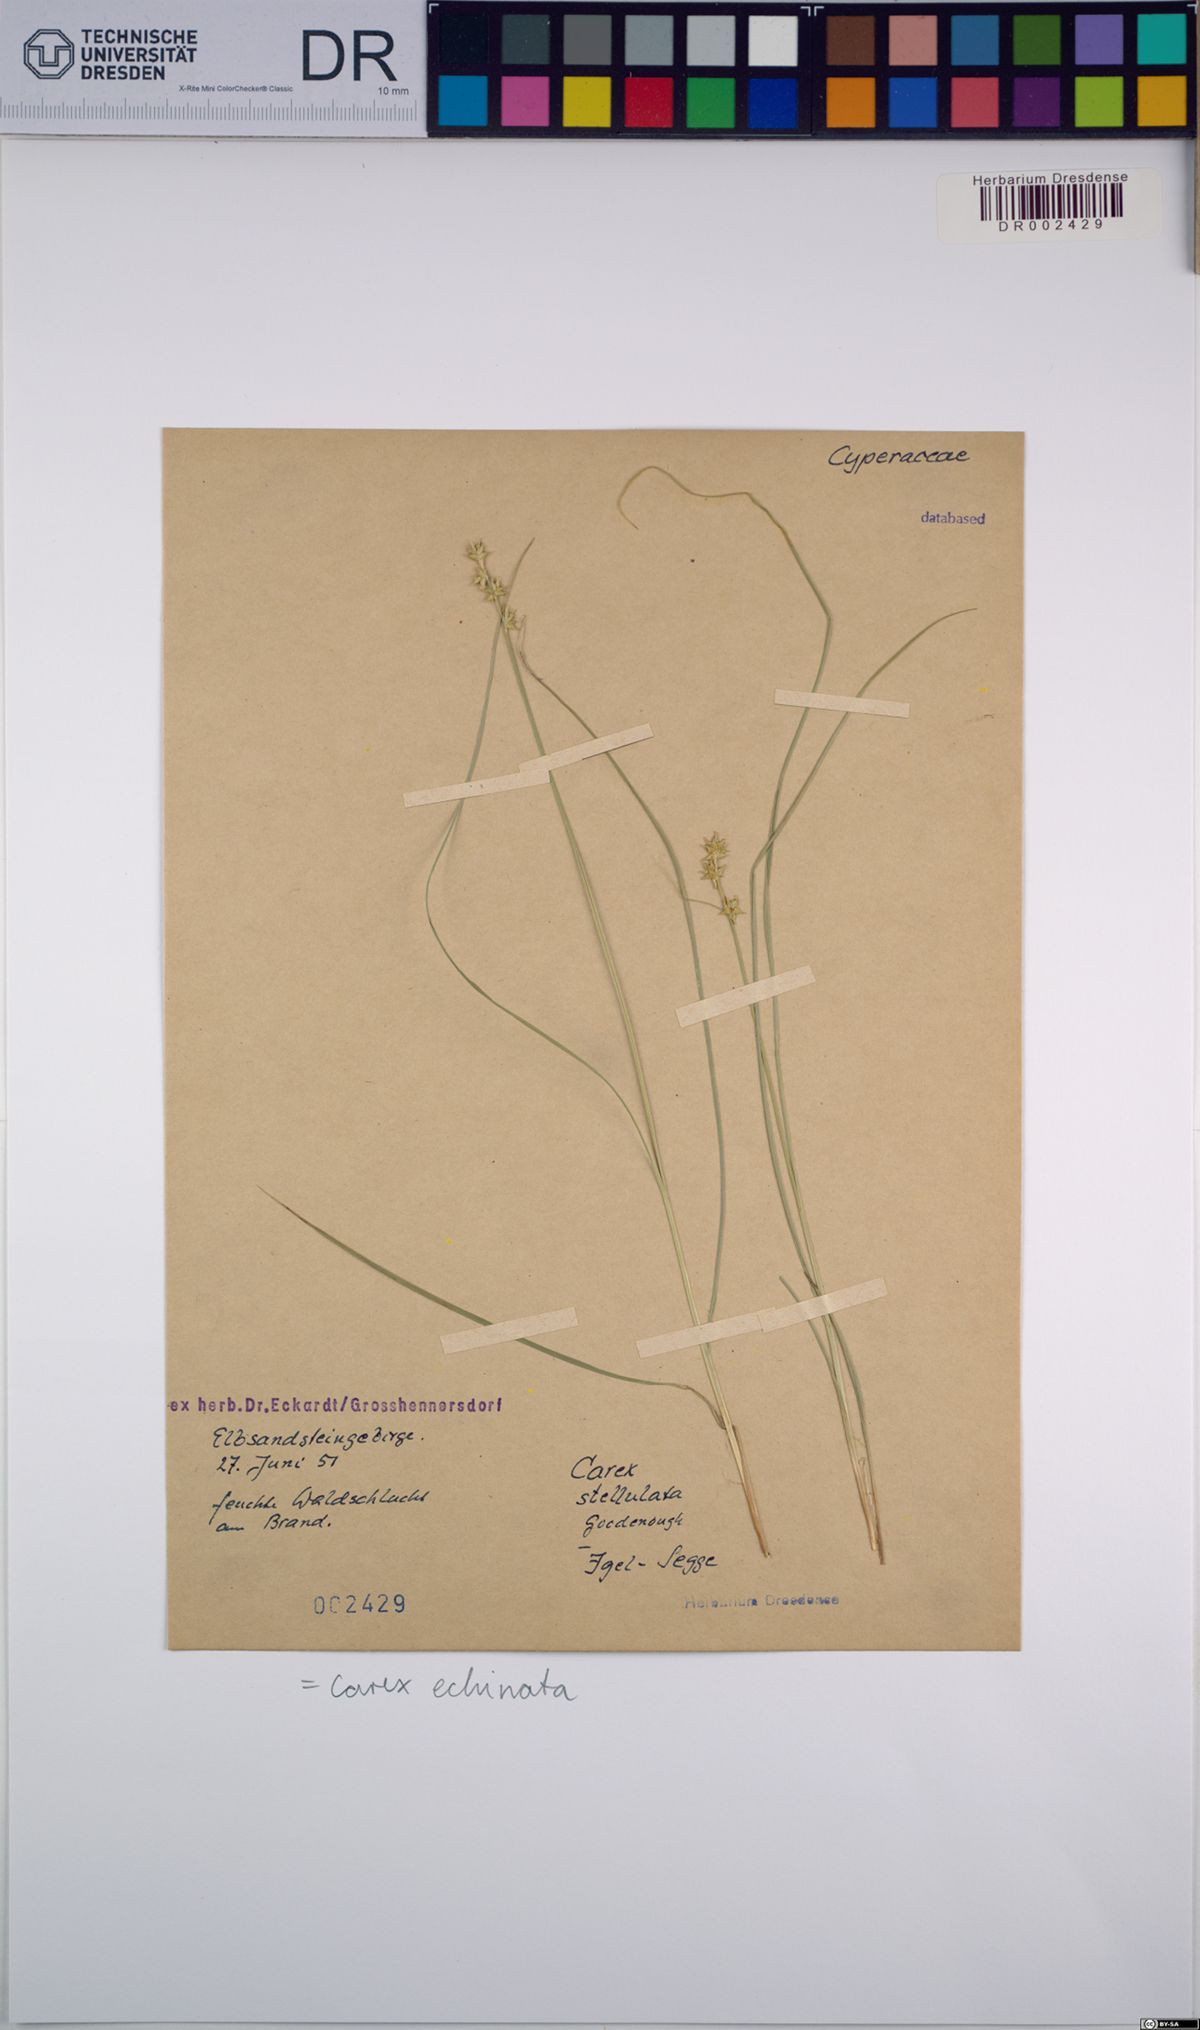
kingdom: Plantae
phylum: Tracheophyta
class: Liliopsida
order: Poales
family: Cyperaceae
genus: Carex
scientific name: Carex echinata
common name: Star sedge
